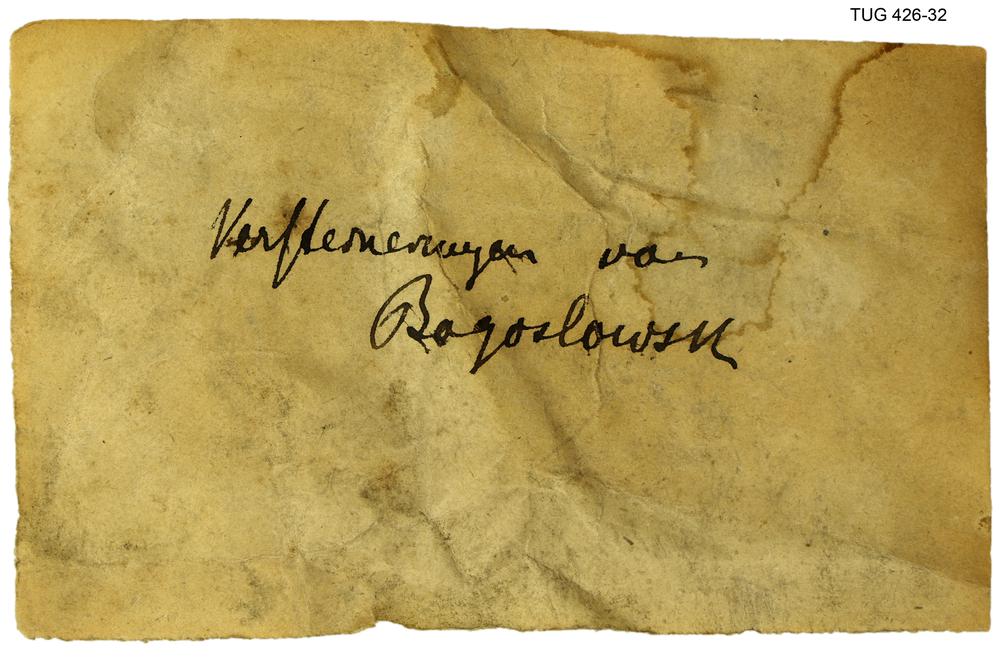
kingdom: Animalia
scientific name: Animalia
